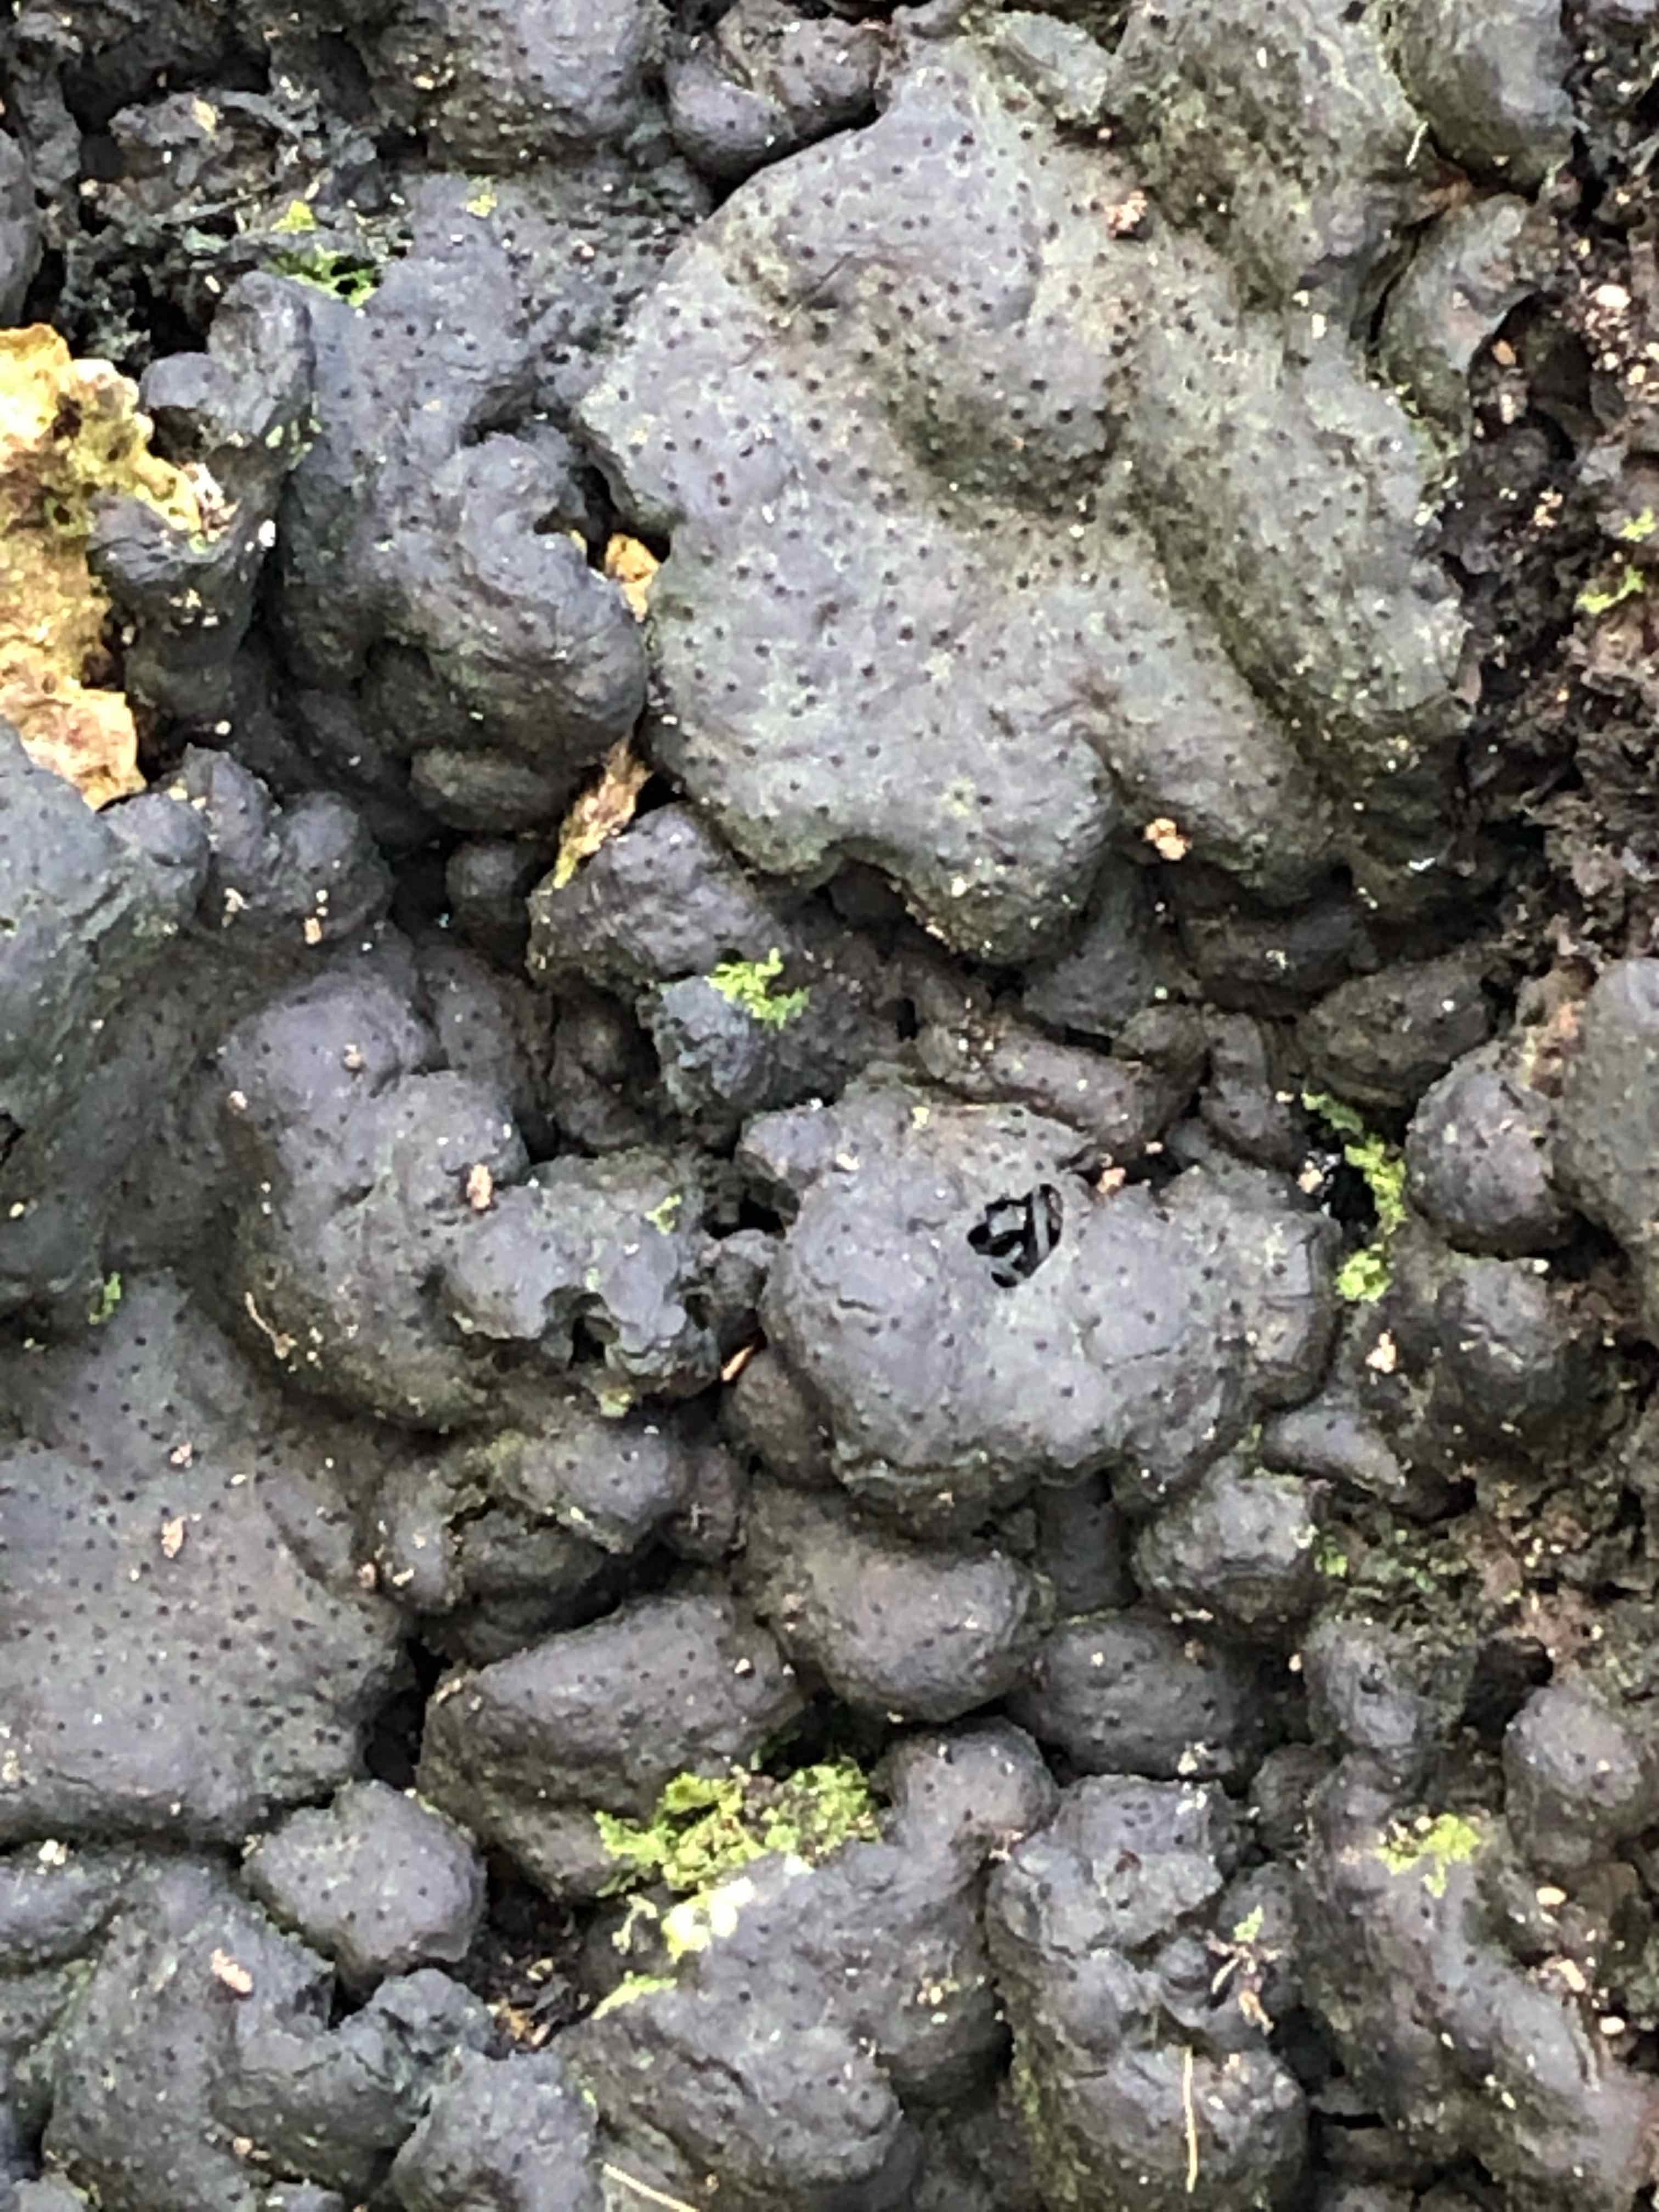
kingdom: Fungi
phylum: Ascomycota
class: Sordariomycetes
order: Xylariales
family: Xylariaceae
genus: Kretzschmaria
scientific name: Kretzschmaria deusta
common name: stor kulsvamp
